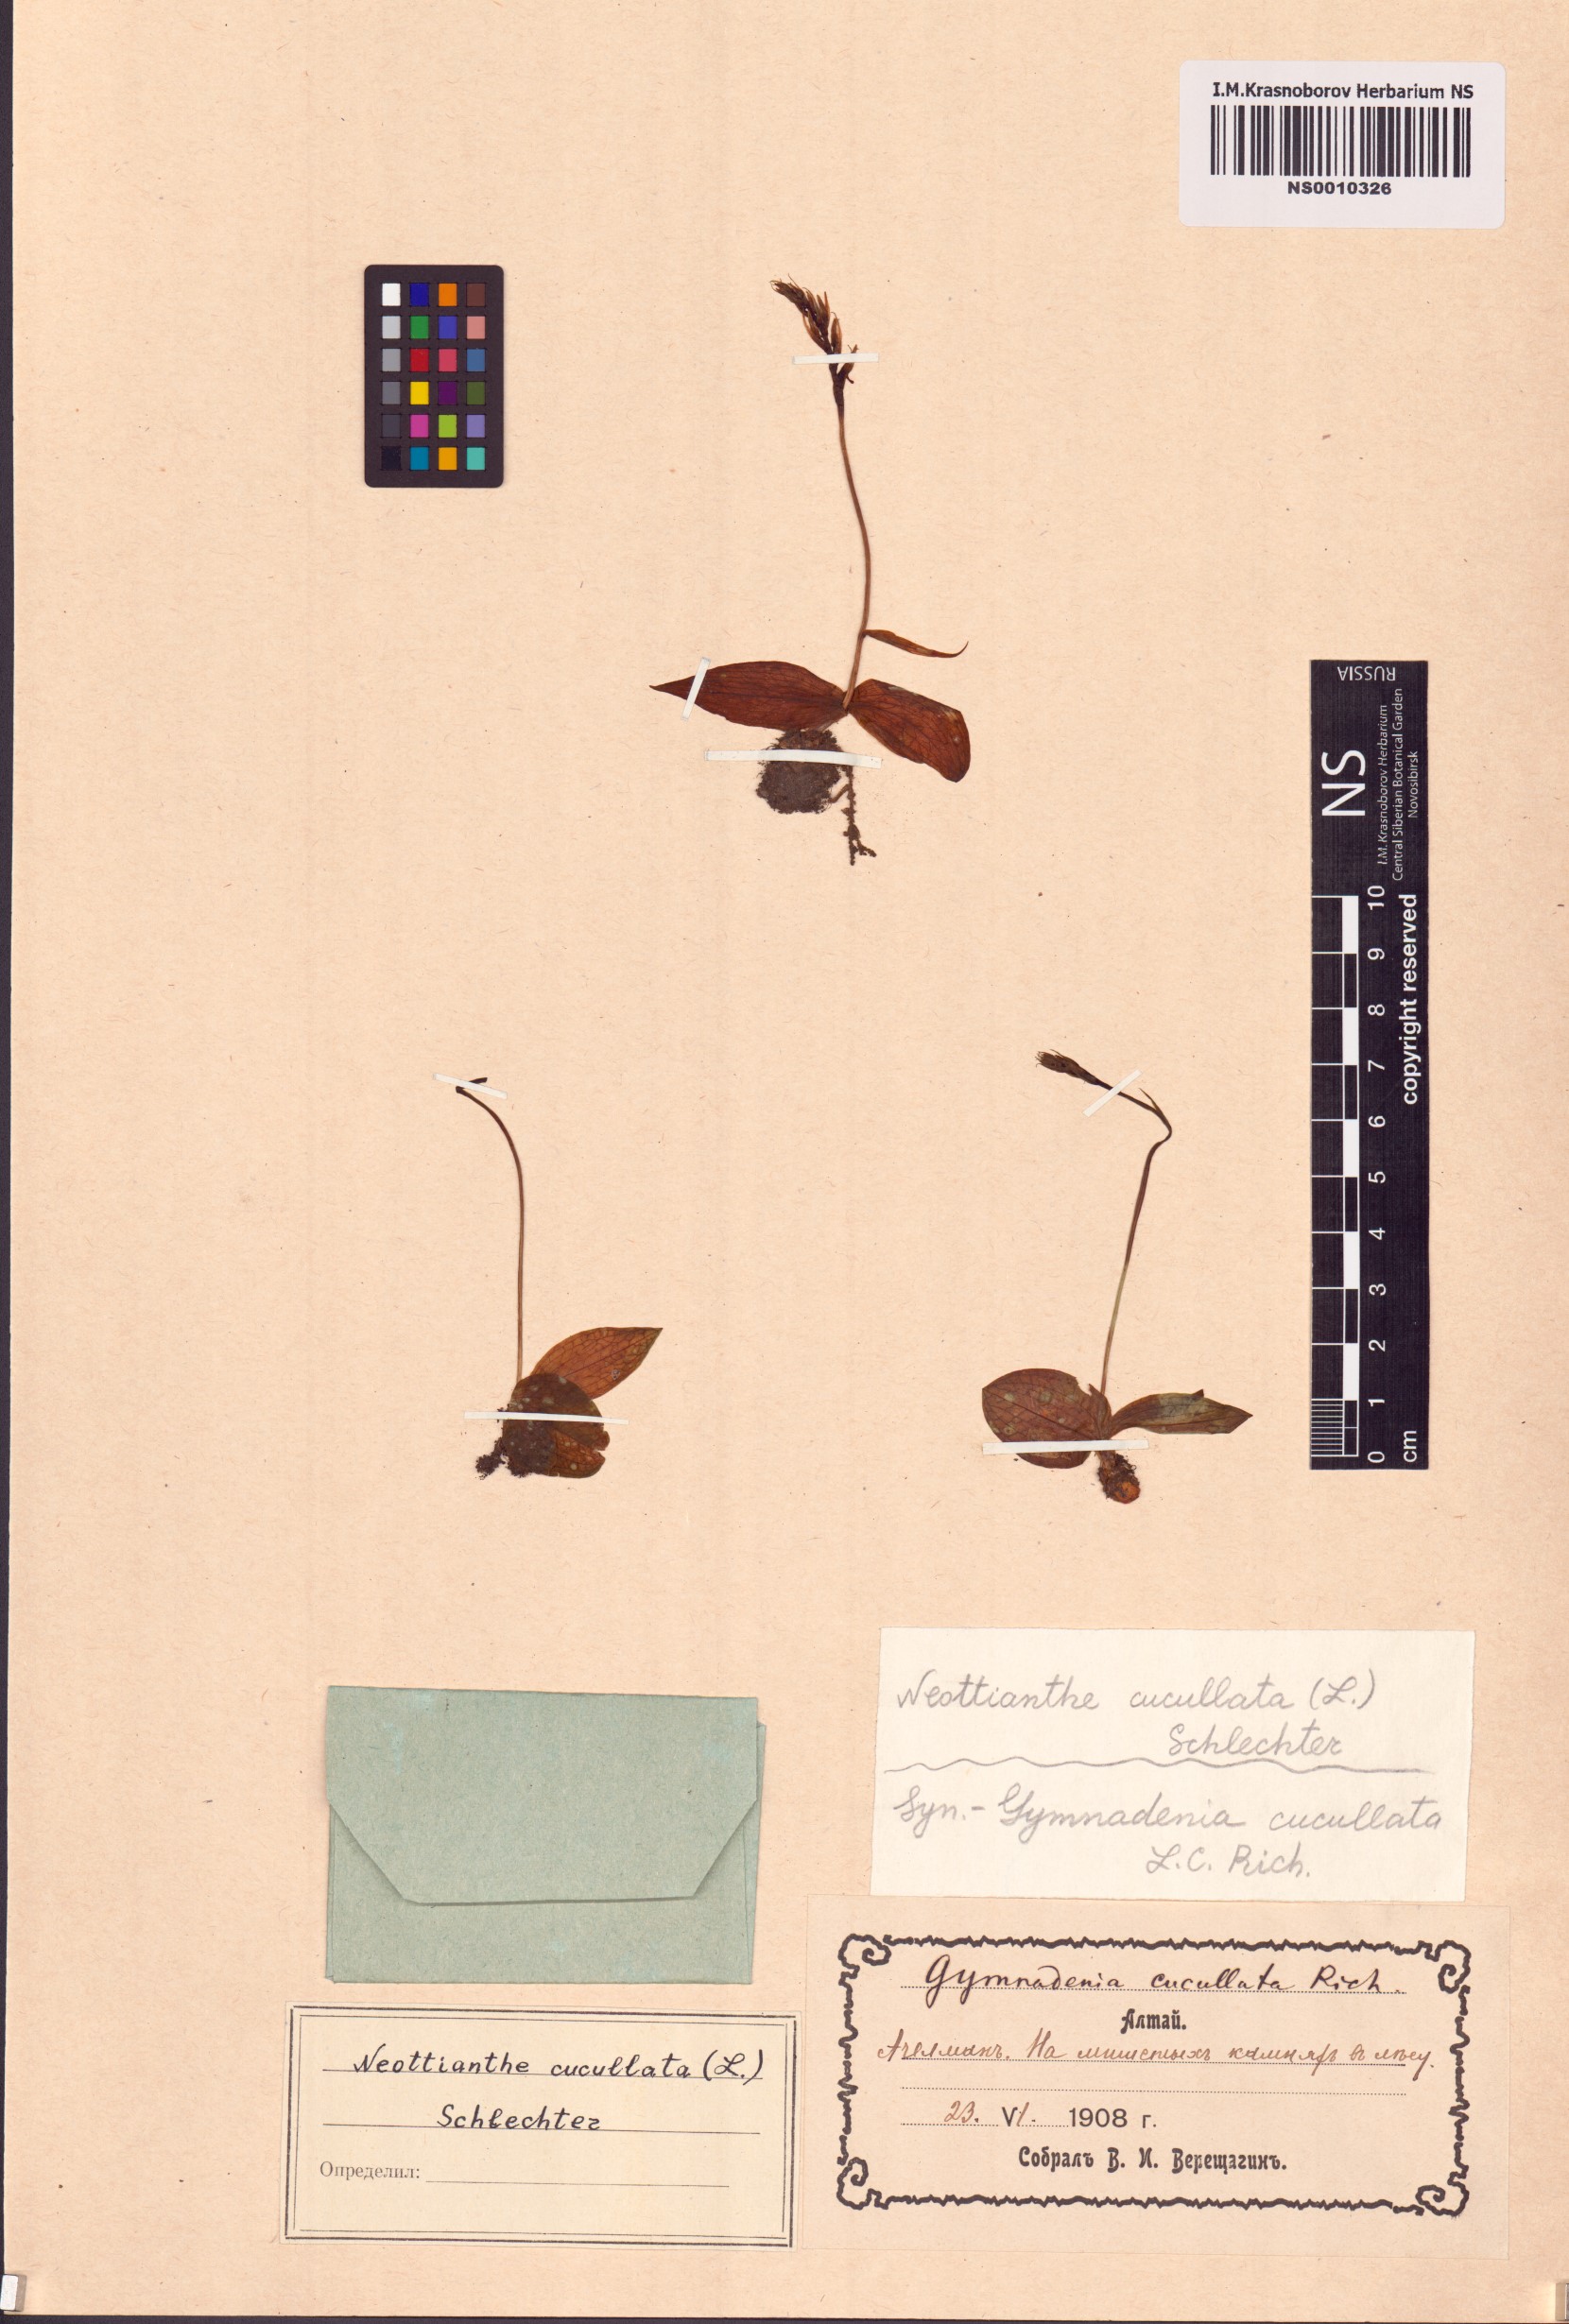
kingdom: Plantae
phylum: Tracheophyta
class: Liliopsida
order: Asparagales
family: Orchidaceae
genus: Hemipilia
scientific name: Hemipilia cucullata
